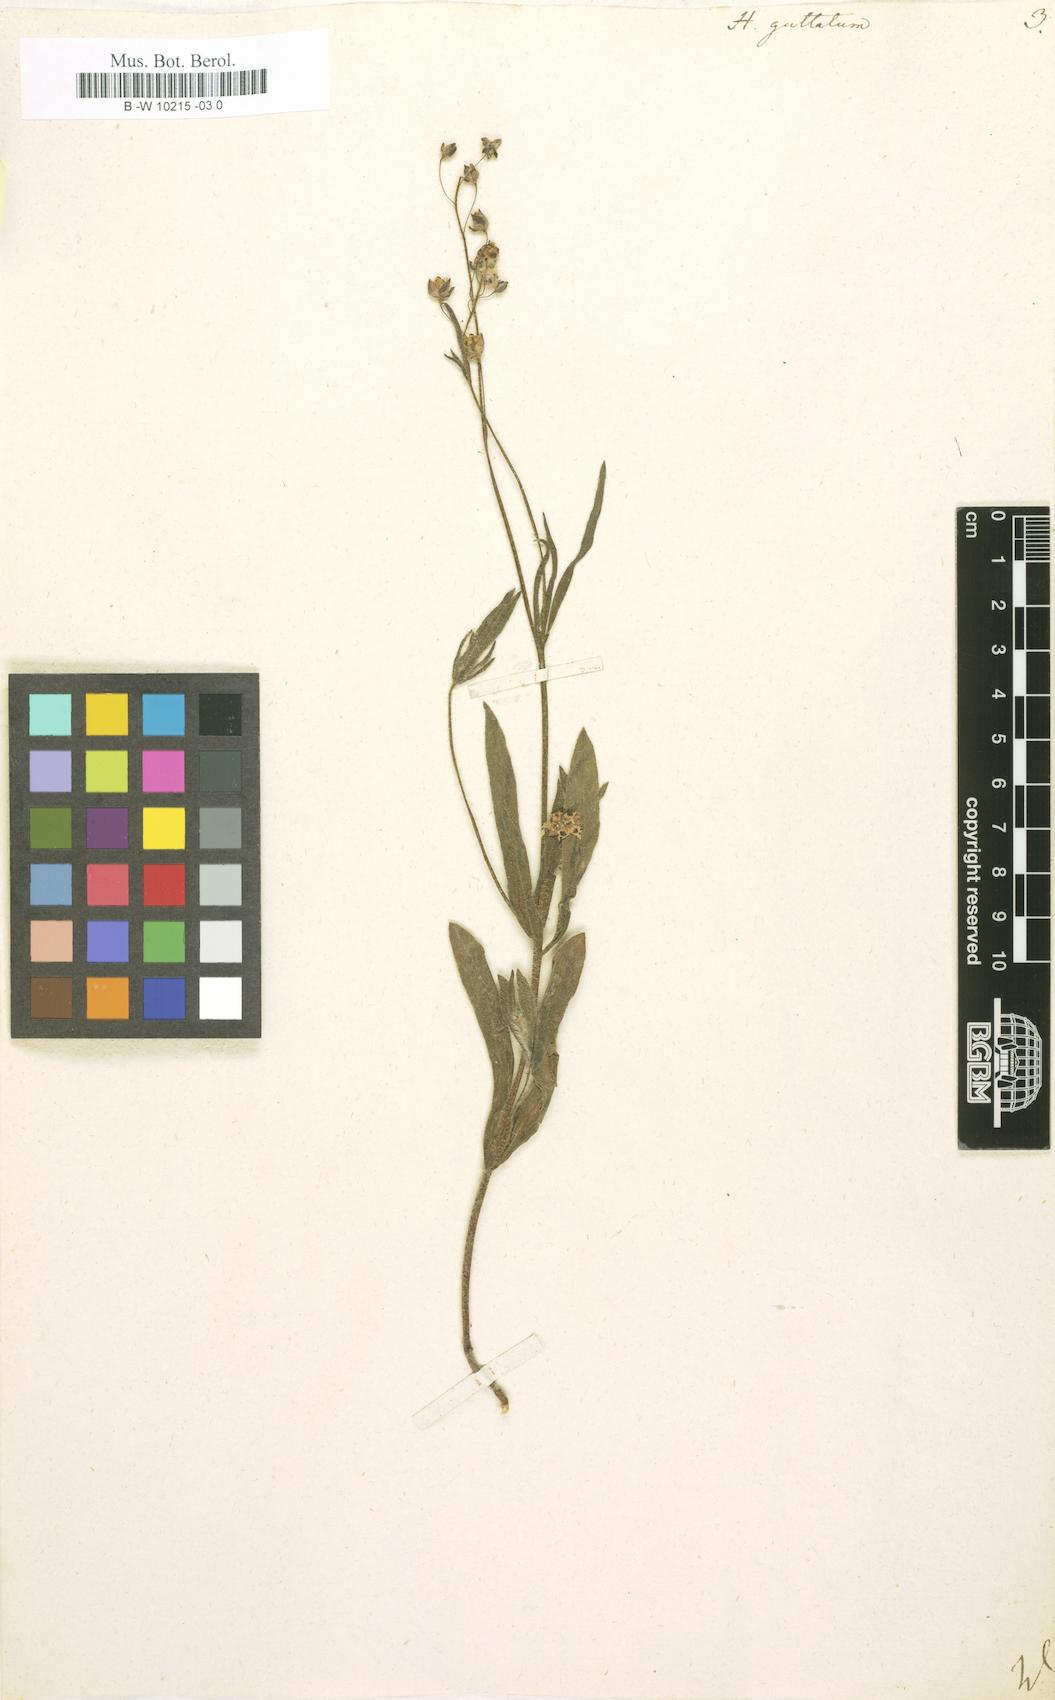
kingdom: Plantae
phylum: Tracheophyta
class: Magnoliopsida
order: Malvales
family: Cistaceae
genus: Tuberaria
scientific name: Tuberaria guttata
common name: Spotted rock-rose
